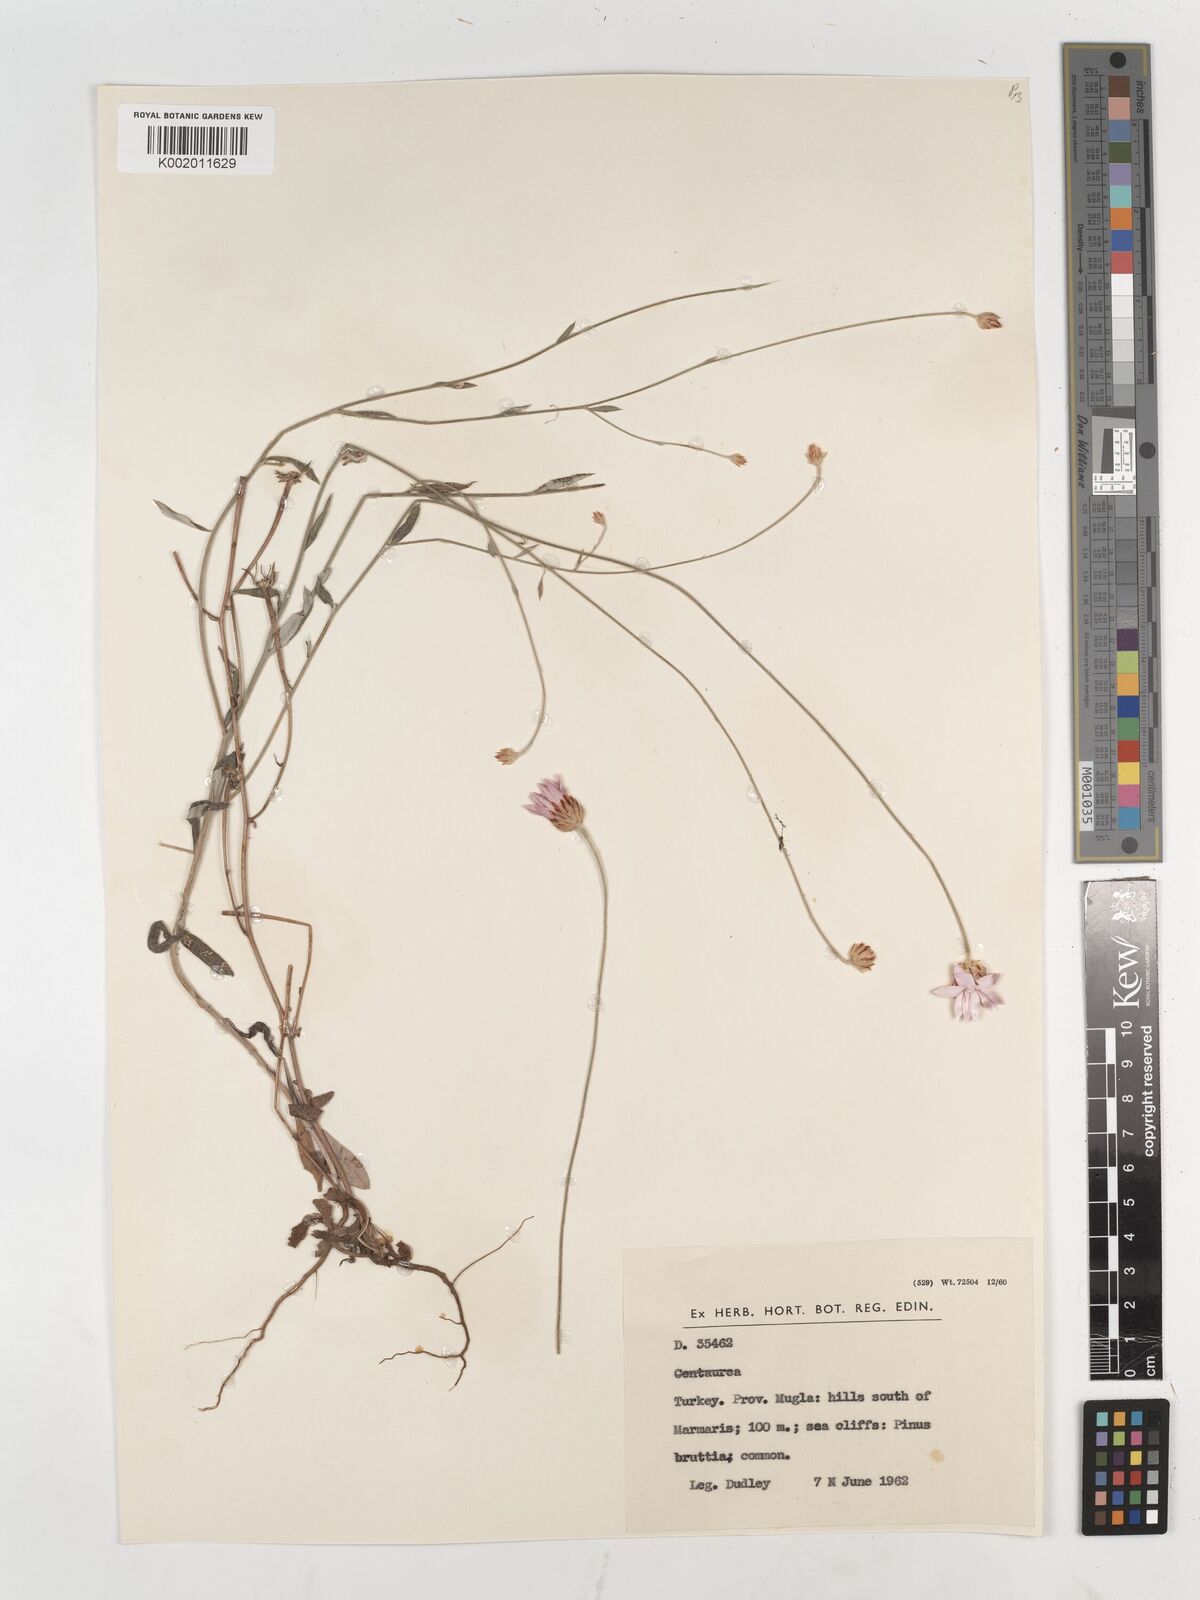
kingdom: Plantae
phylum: Tracheophyta
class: Magnoliopsida
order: Asterales
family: Asteraceae
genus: Xeranthemum
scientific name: Xeranthemum annuum
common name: Immortelle
